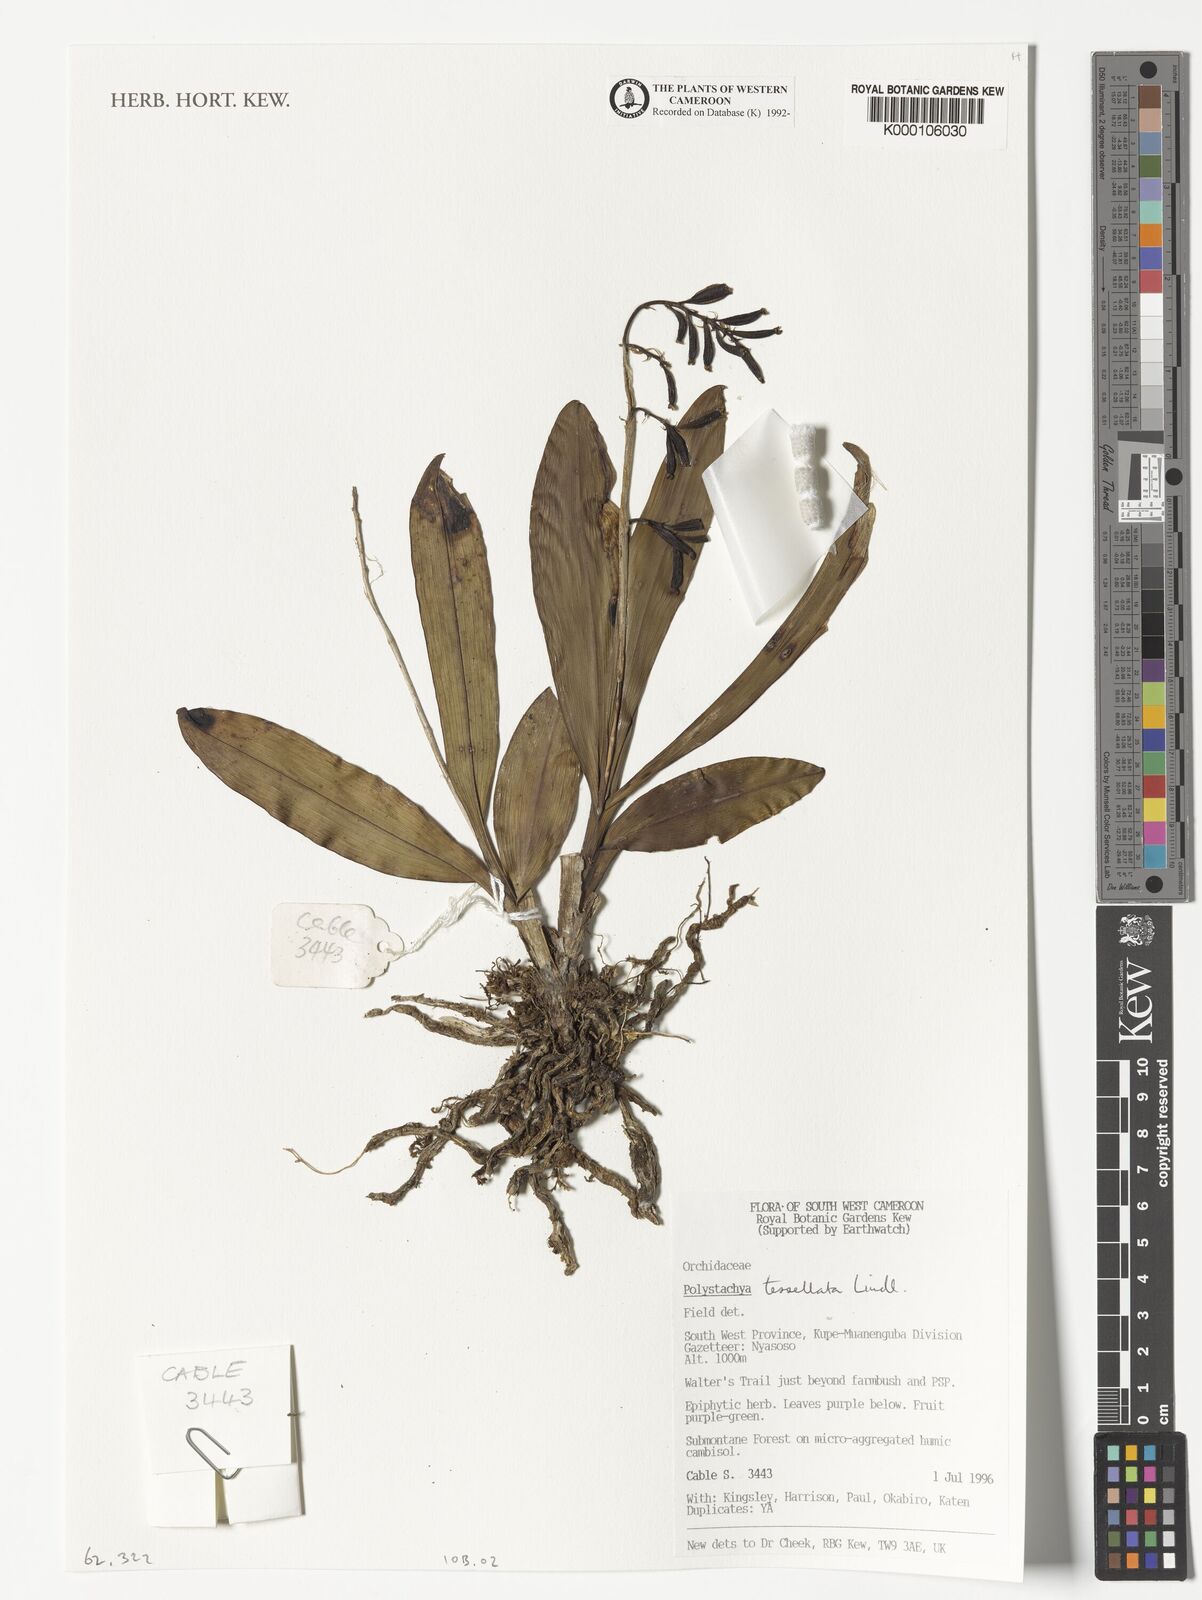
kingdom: Plantae
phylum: Tracheophyta
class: Liliopsida
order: Asparagales
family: Orchidaceae
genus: Polystachya
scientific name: Polystachya concreta
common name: Greater yellowspike orchid
